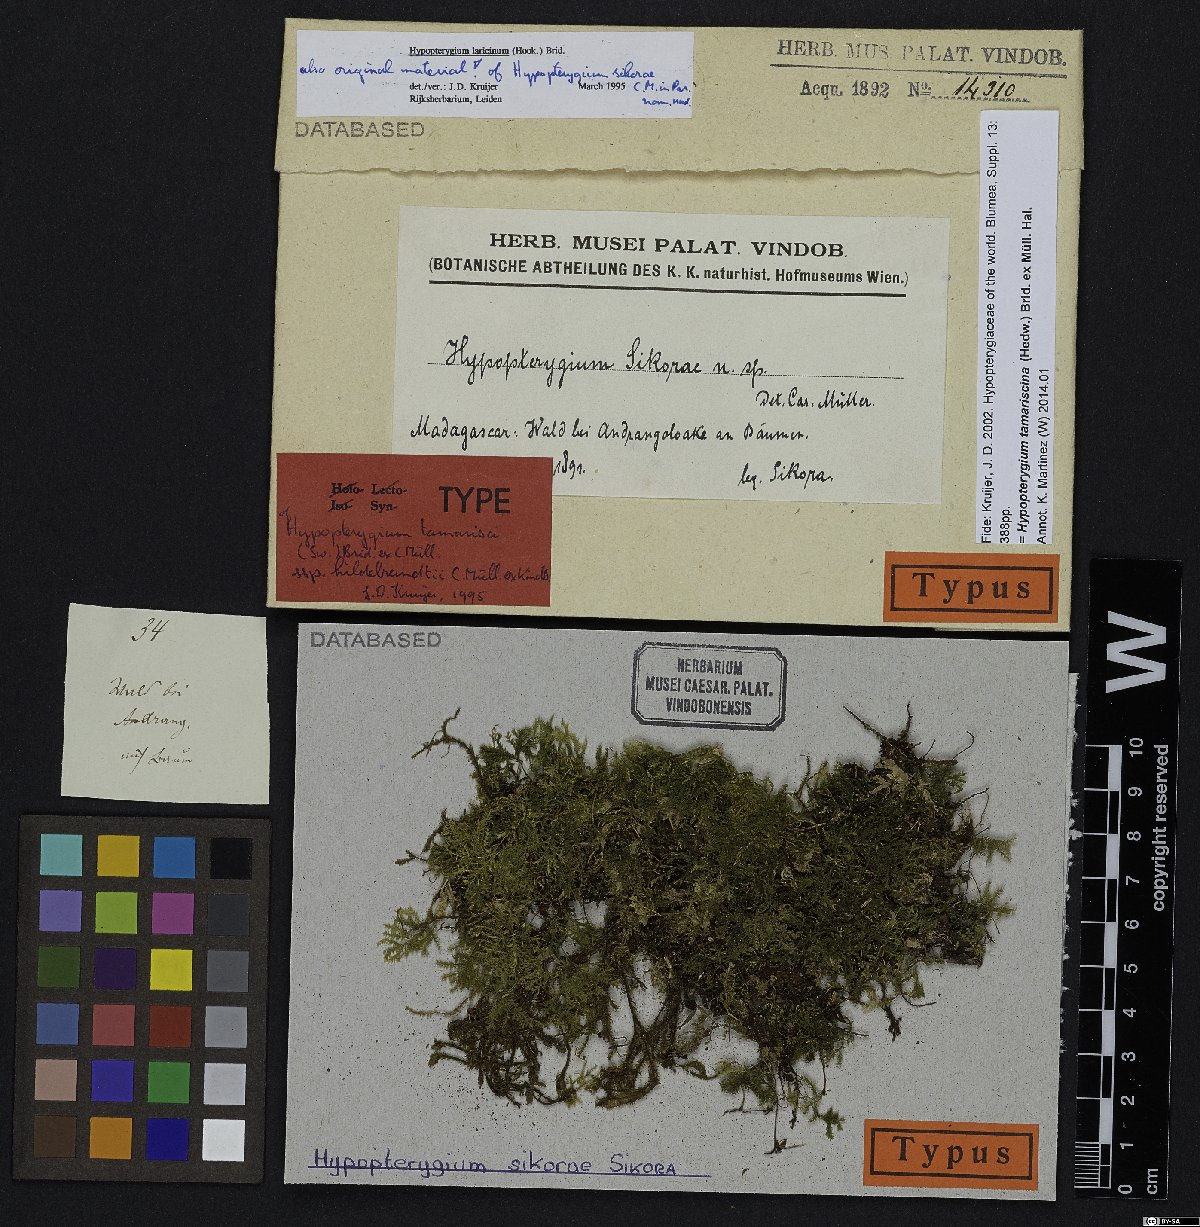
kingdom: Plantae
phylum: Bryophyta
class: Bryopsida
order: Hypopterygiales
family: Hypopterygiaceae
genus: Hypopterygium
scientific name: Hypopterygium tamarisci
